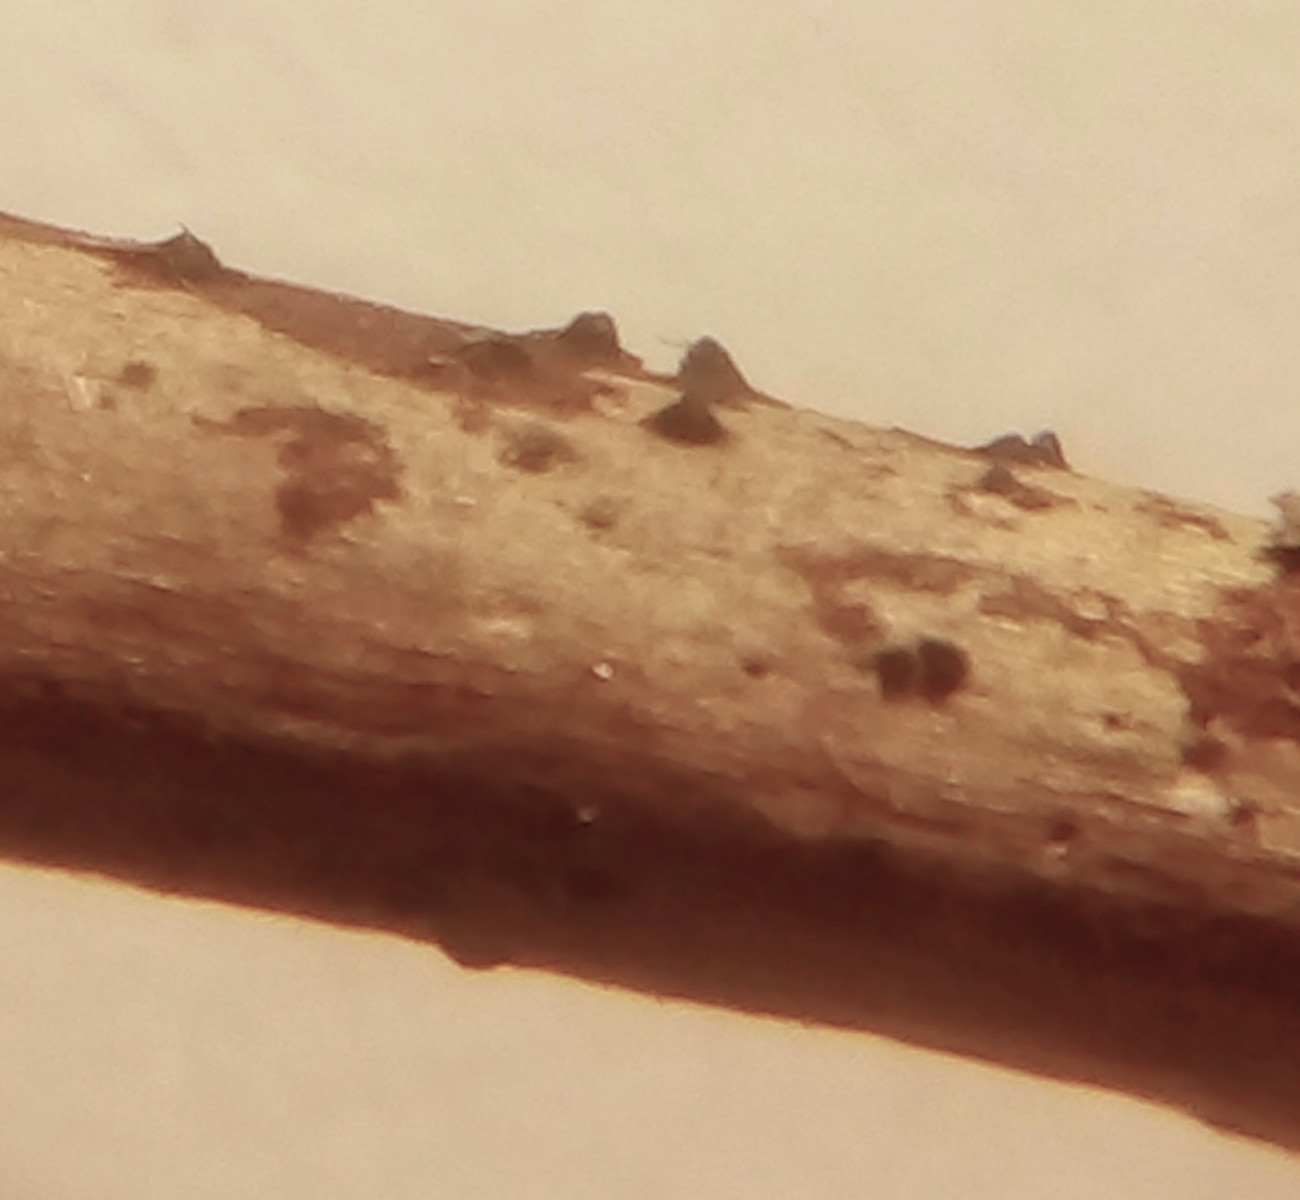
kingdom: Fungi
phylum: Ascomycota
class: Sordariomycetes
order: Xylariales
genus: Melomastia
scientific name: Melomastia mastoidea
